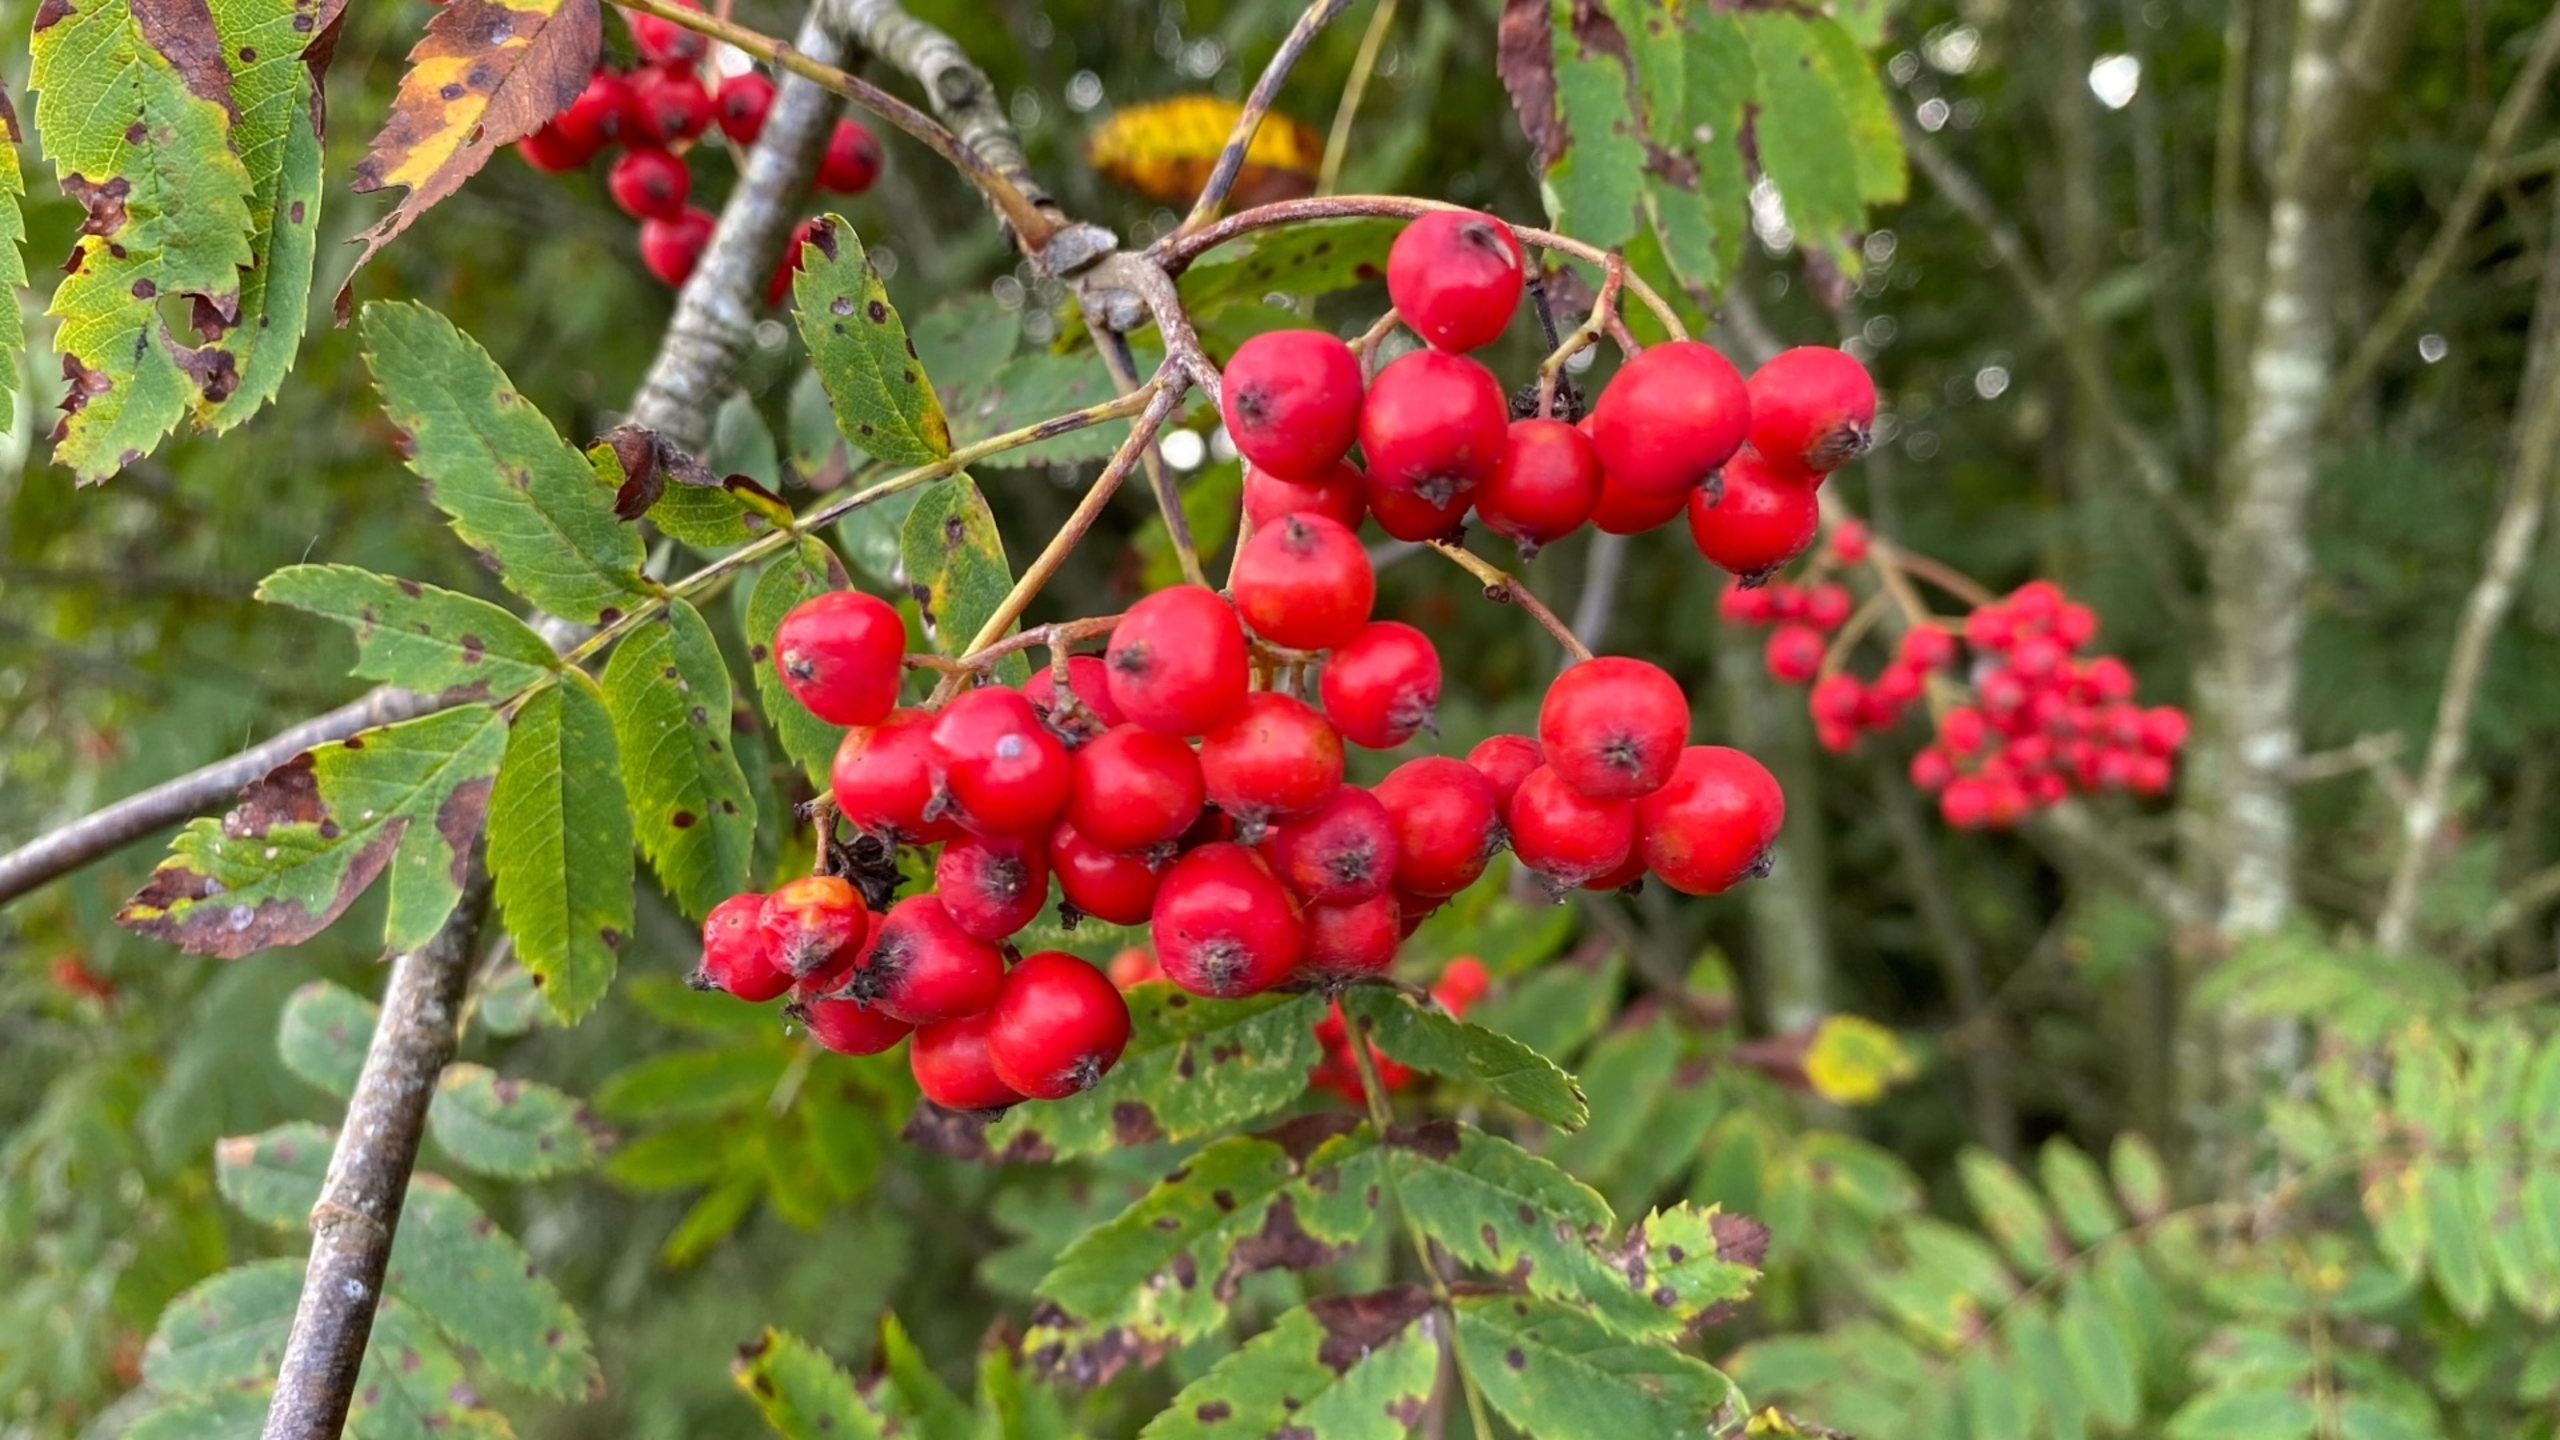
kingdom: Plantae
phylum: Tracheophyta
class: Magnoliopsida
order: Rosales
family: Rosaceae
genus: Sorbus
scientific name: Sorbus aucuparia
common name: Almindelig røn
